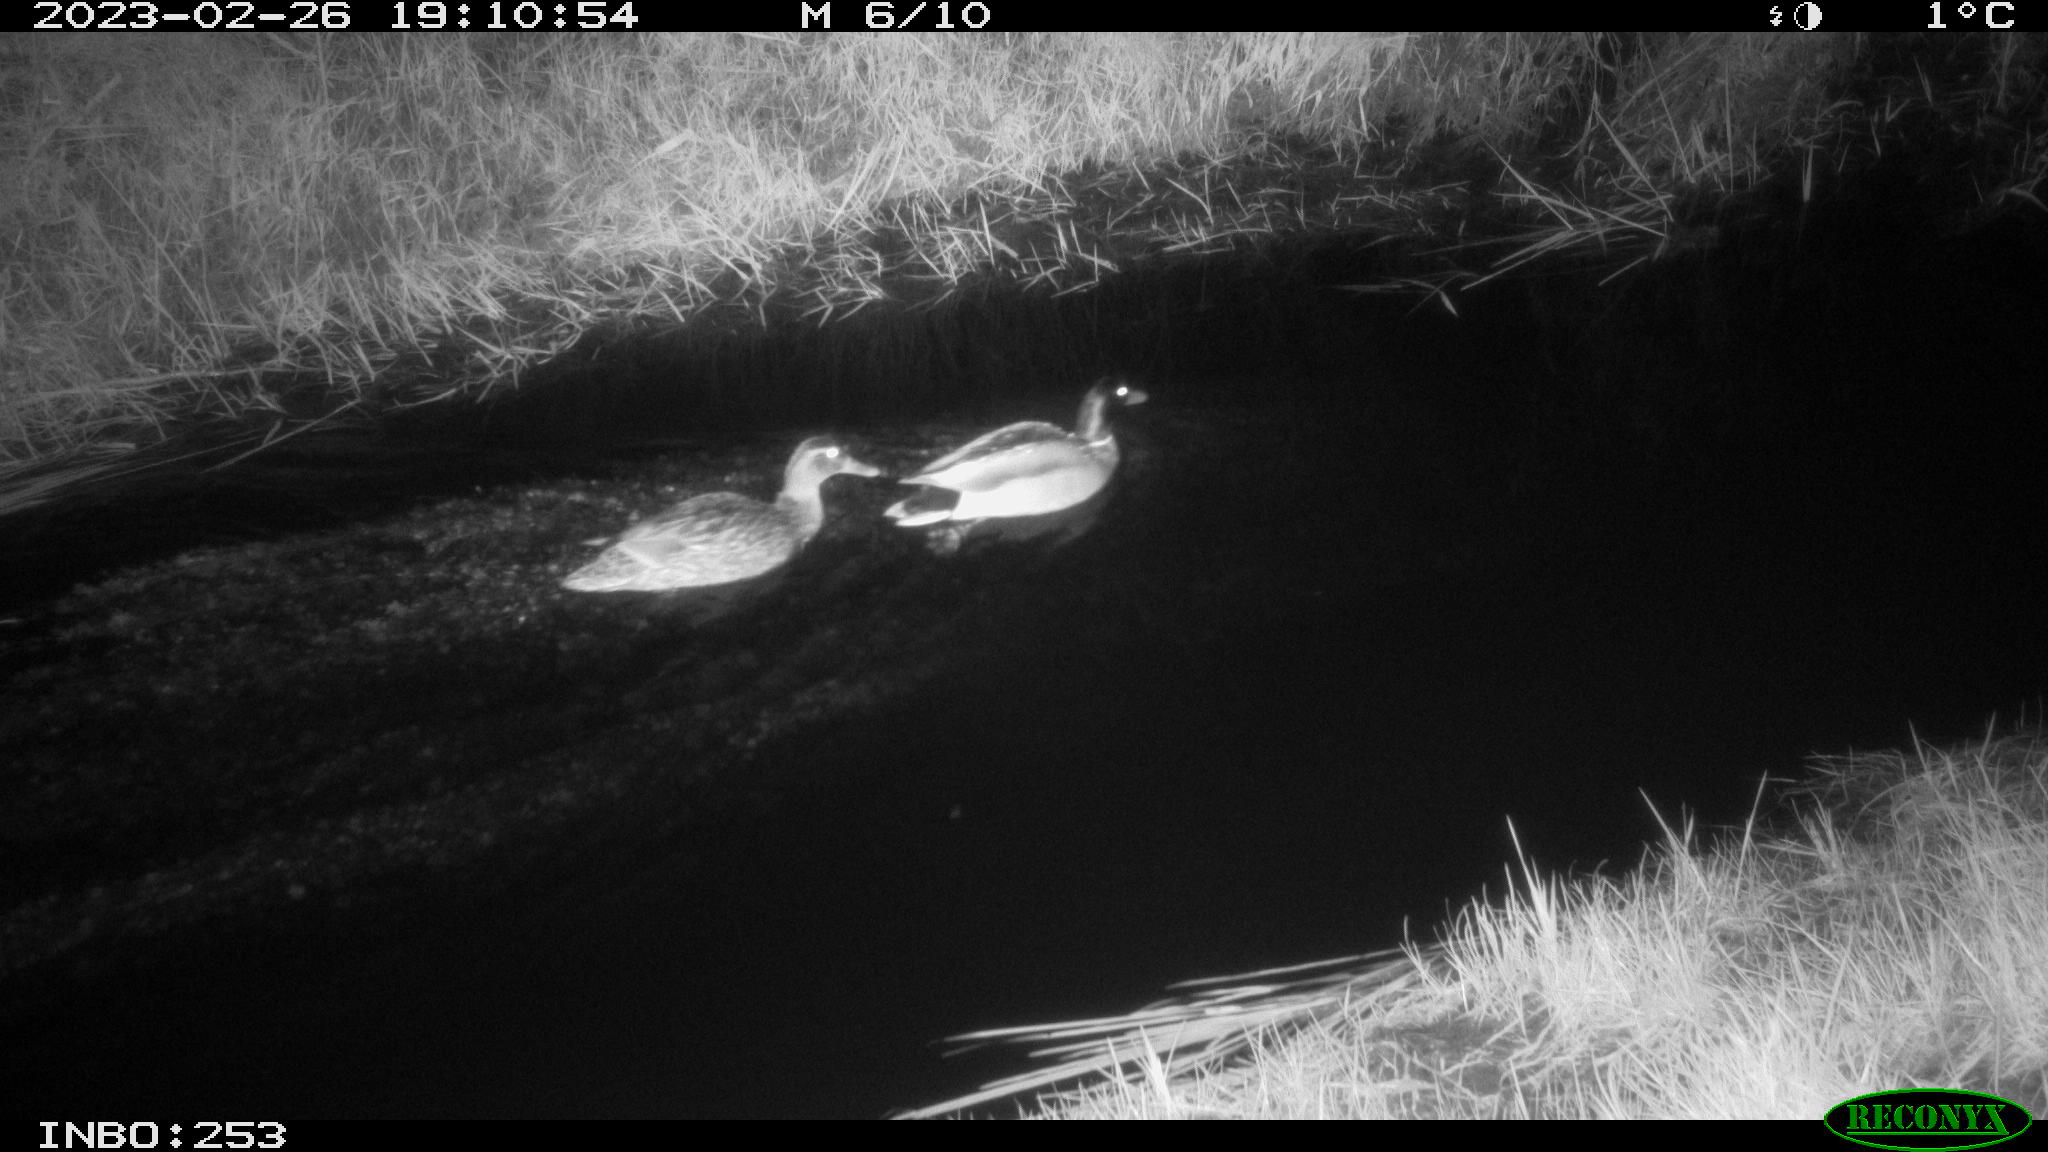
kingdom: Animalia
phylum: Chordata
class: Aves
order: Anseriformes
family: Anatidae
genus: Anas
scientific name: Anas
